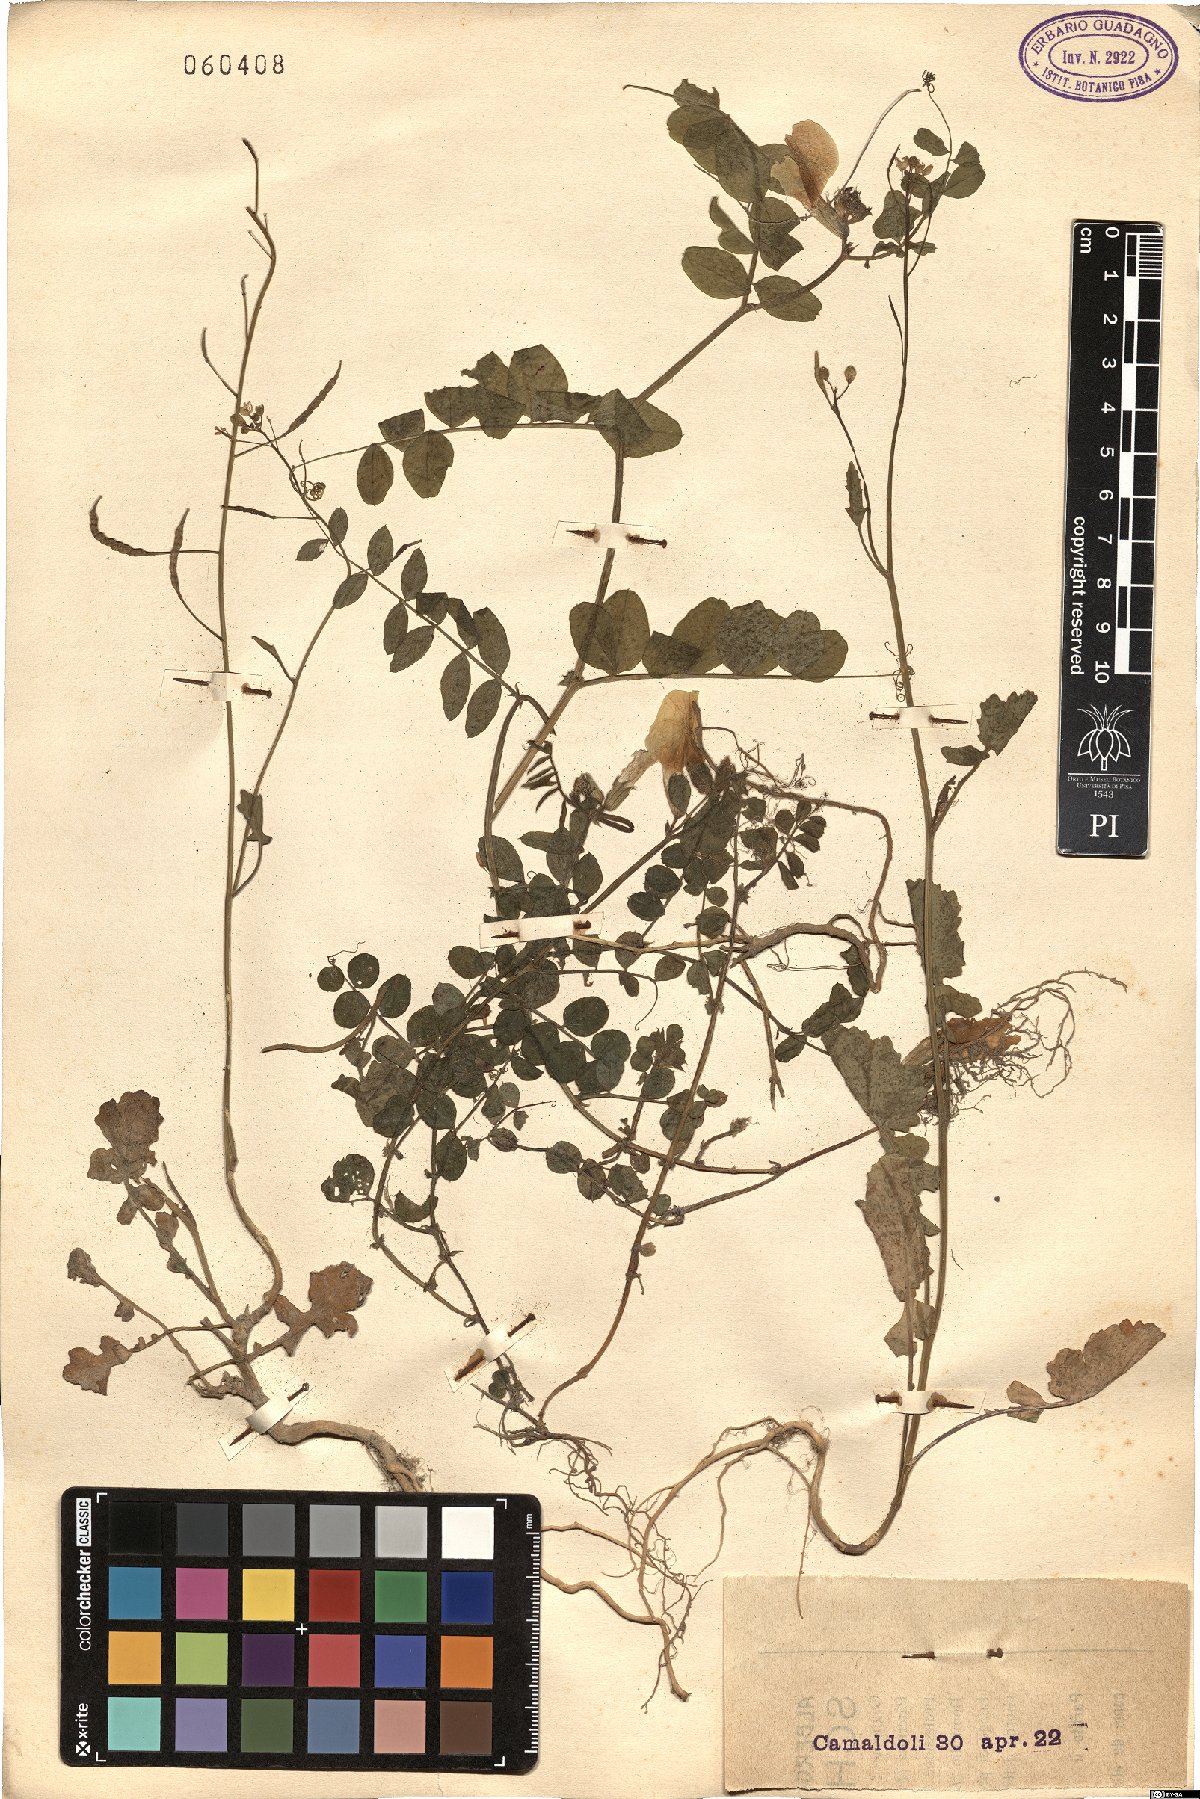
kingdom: Plantae
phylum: Tracheophyta
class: Magnoliopsida
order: Brassicales
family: Brassicaceae
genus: Brassica
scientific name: Brassica
